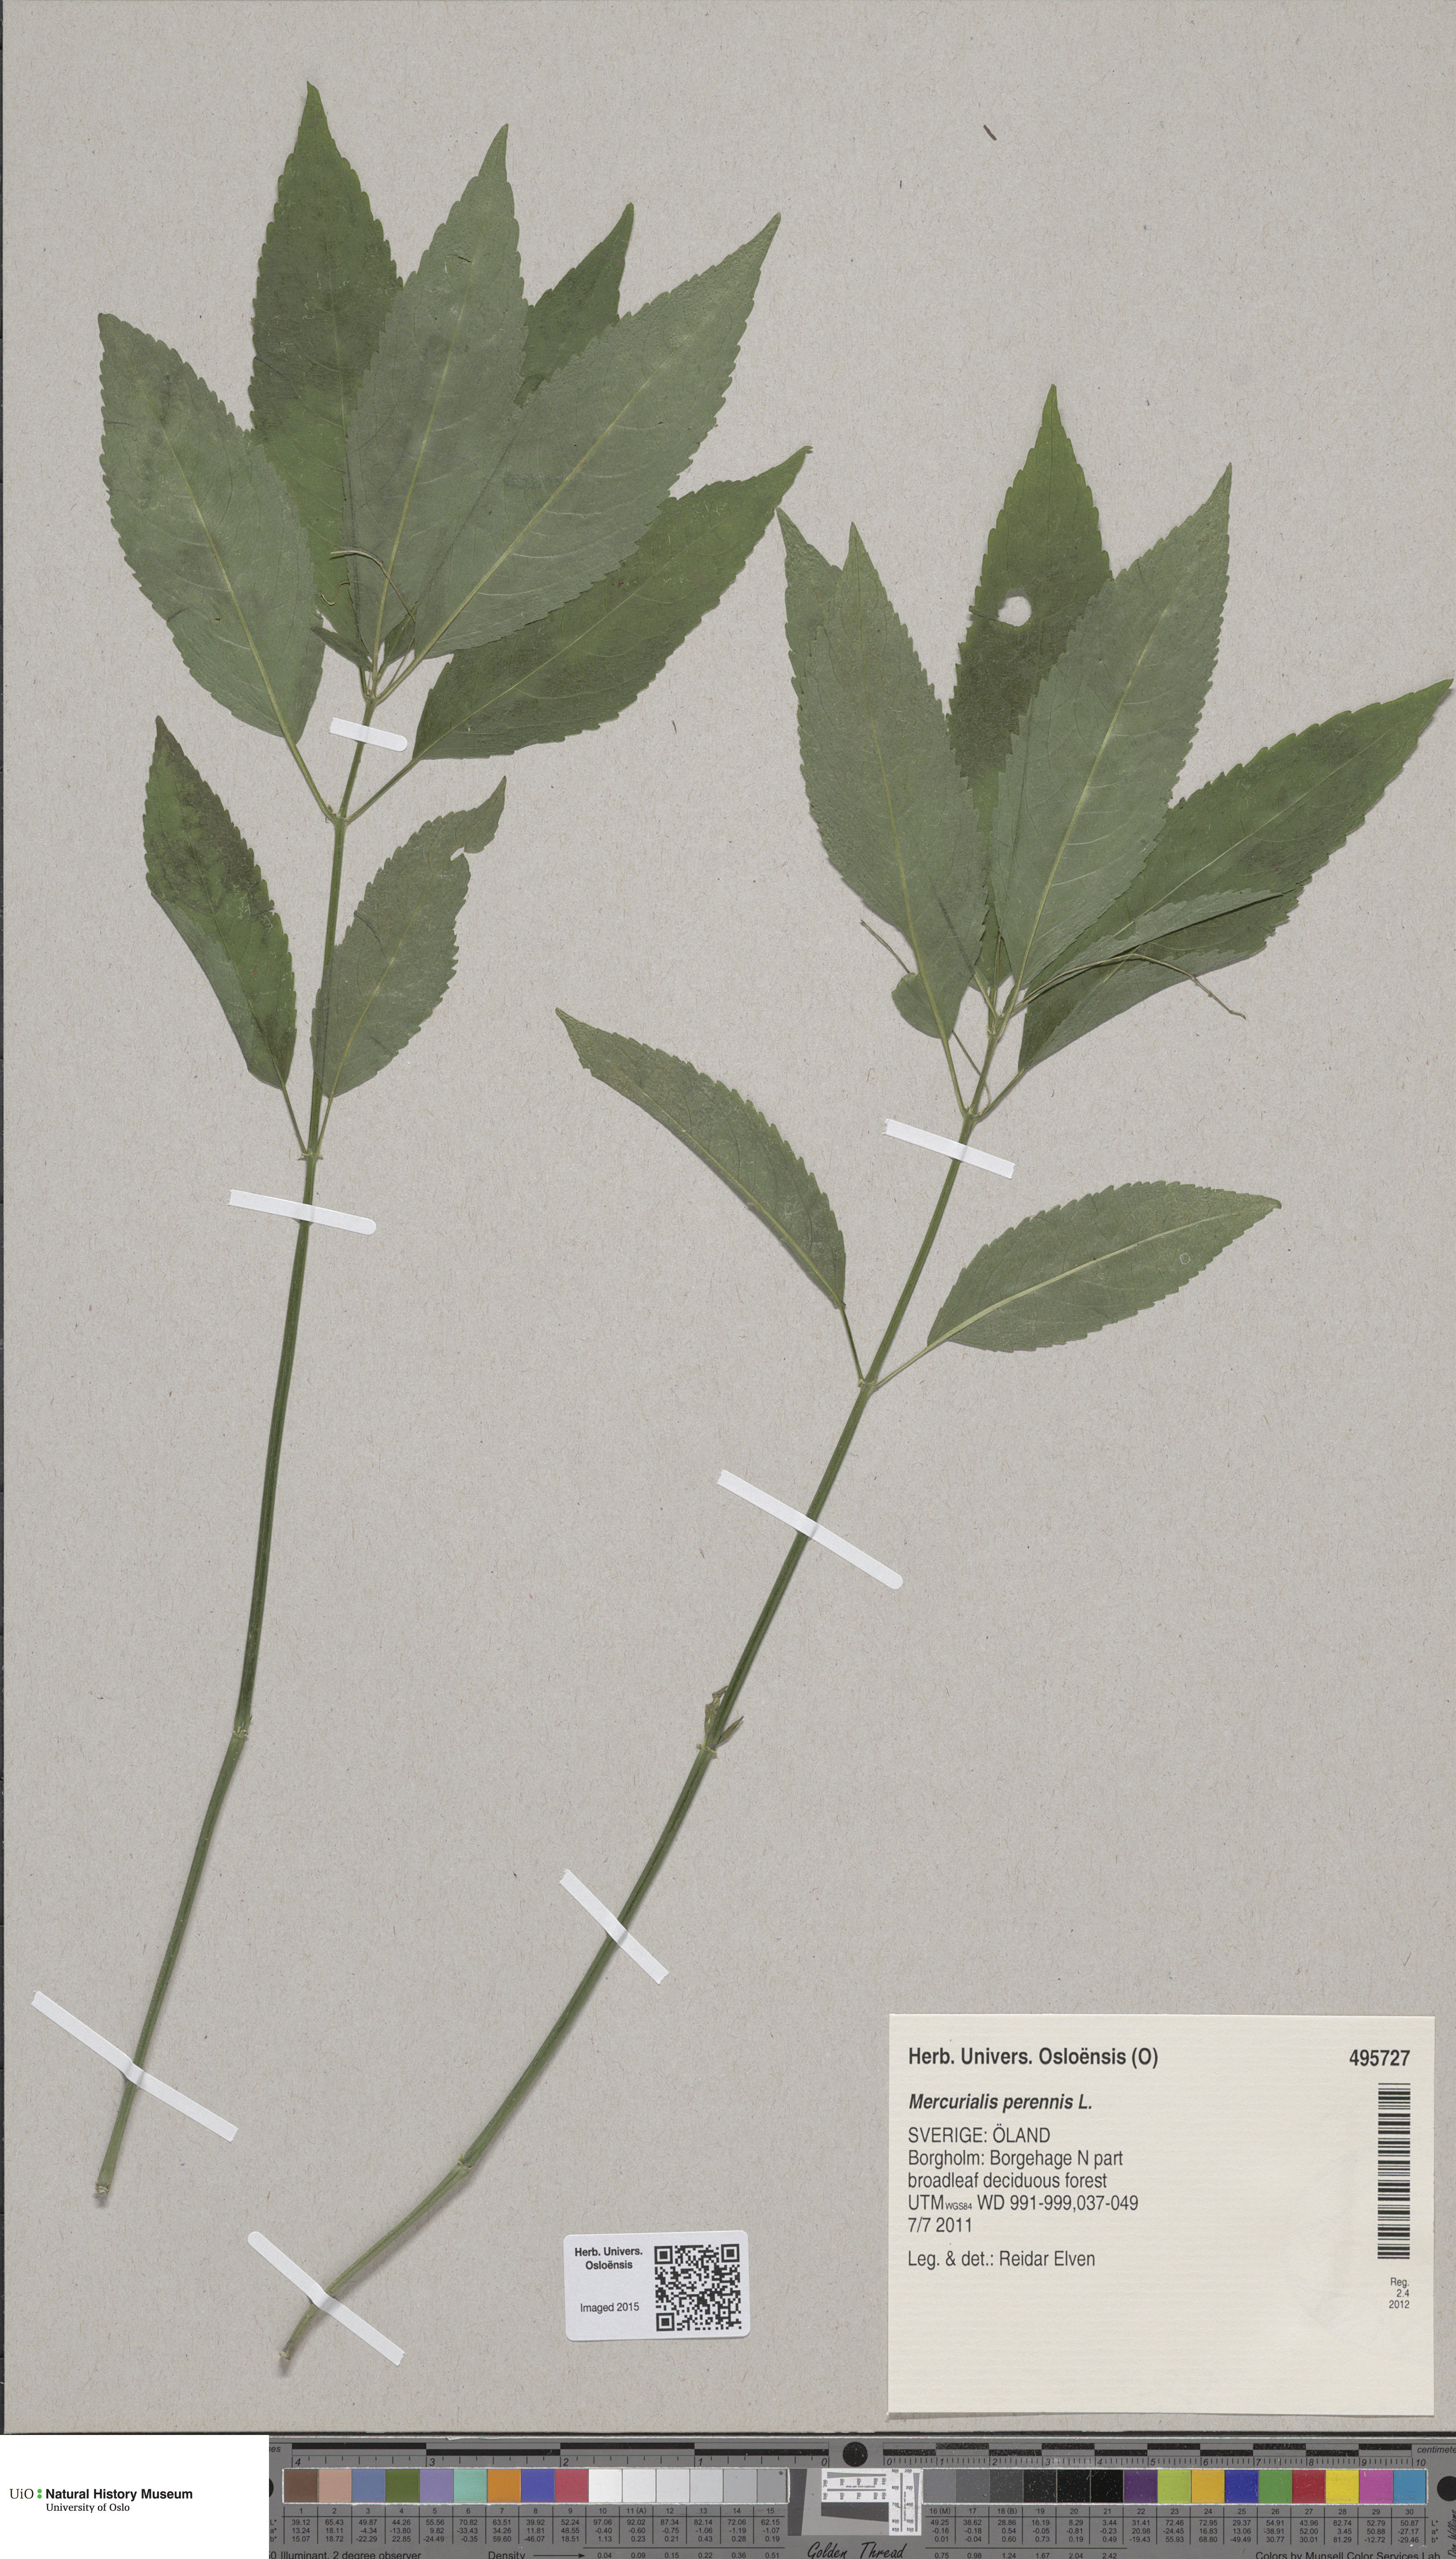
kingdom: Plantae
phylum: Tracheophyta
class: Magnoliopsida
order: Malpighiales
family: Euphorbiaceae
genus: Mercurialis
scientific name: Mercurialis perennis
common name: Dog mercury
